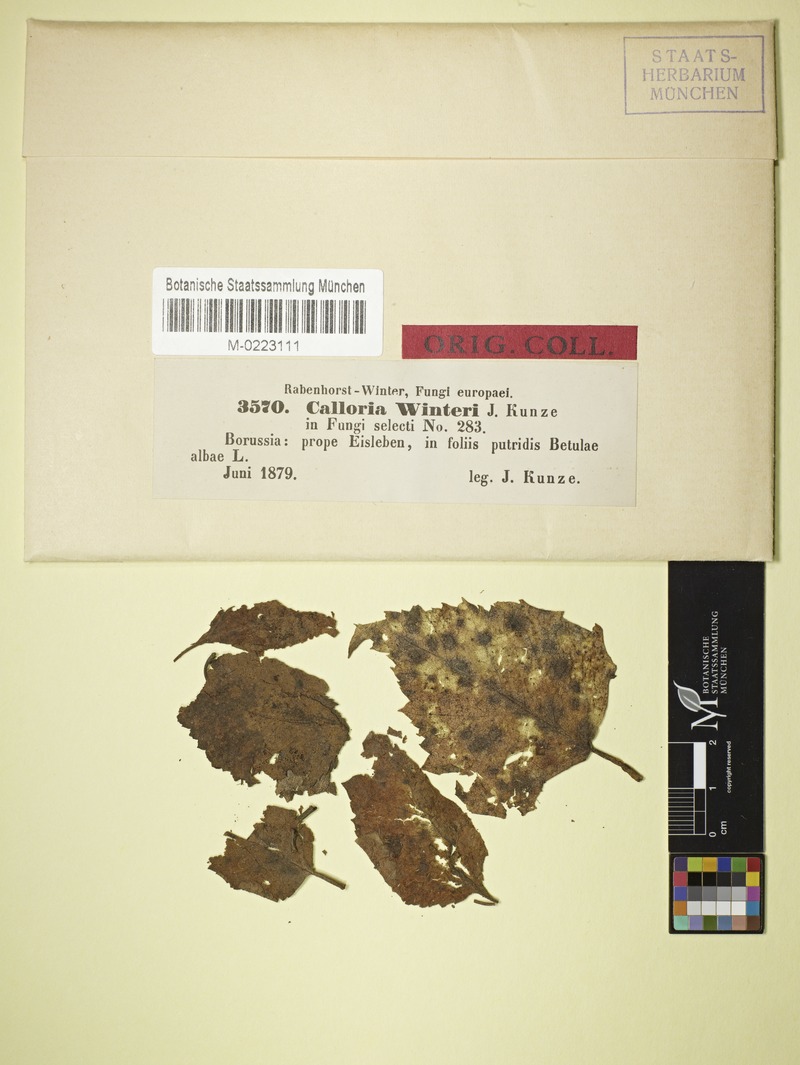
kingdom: Fungi
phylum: Ascomycota
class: Leotiomycetes
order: Helotiales
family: Ploettnerulaceae
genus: Pyrenopeziza
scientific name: Pyrenopeziza betulina
